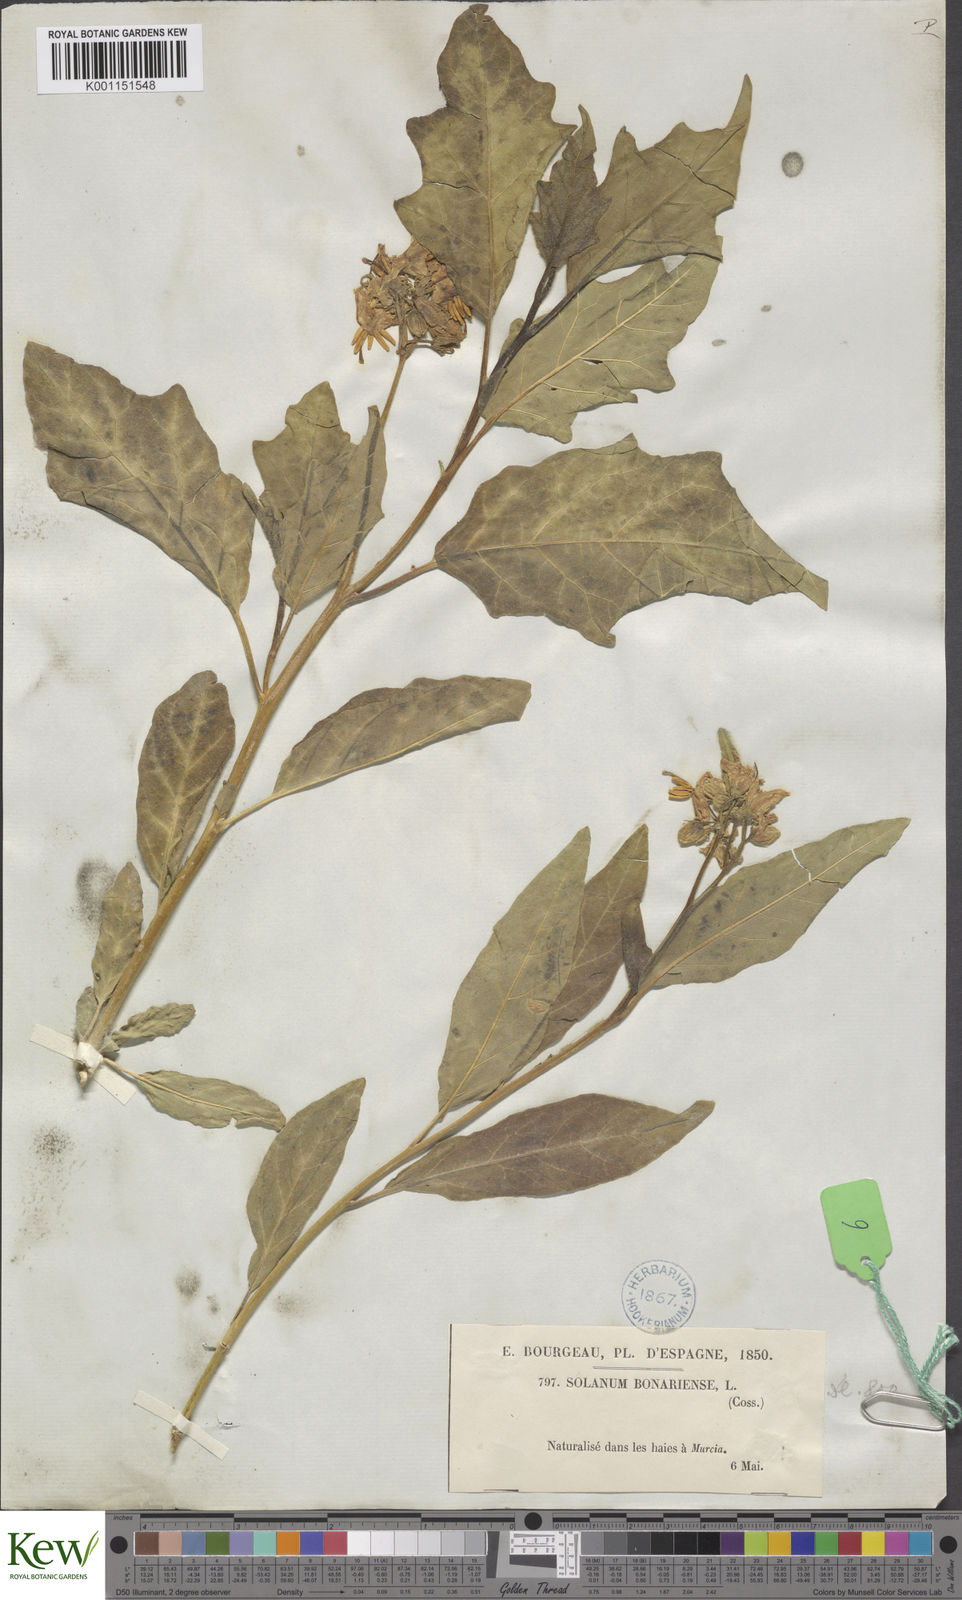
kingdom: Plantae
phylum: Tracheophyta
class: Magnoliopsida
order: Solanales
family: Solanaceae
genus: Solanum
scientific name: Solanum bonariense
